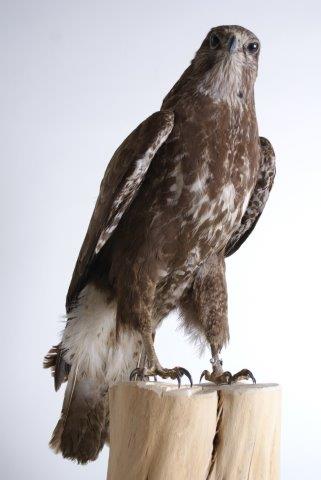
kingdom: Animalia
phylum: Chordata
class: Aves
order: Accipitriformes
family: Accipitridae
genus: Buteo
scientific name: Buteo buteo
